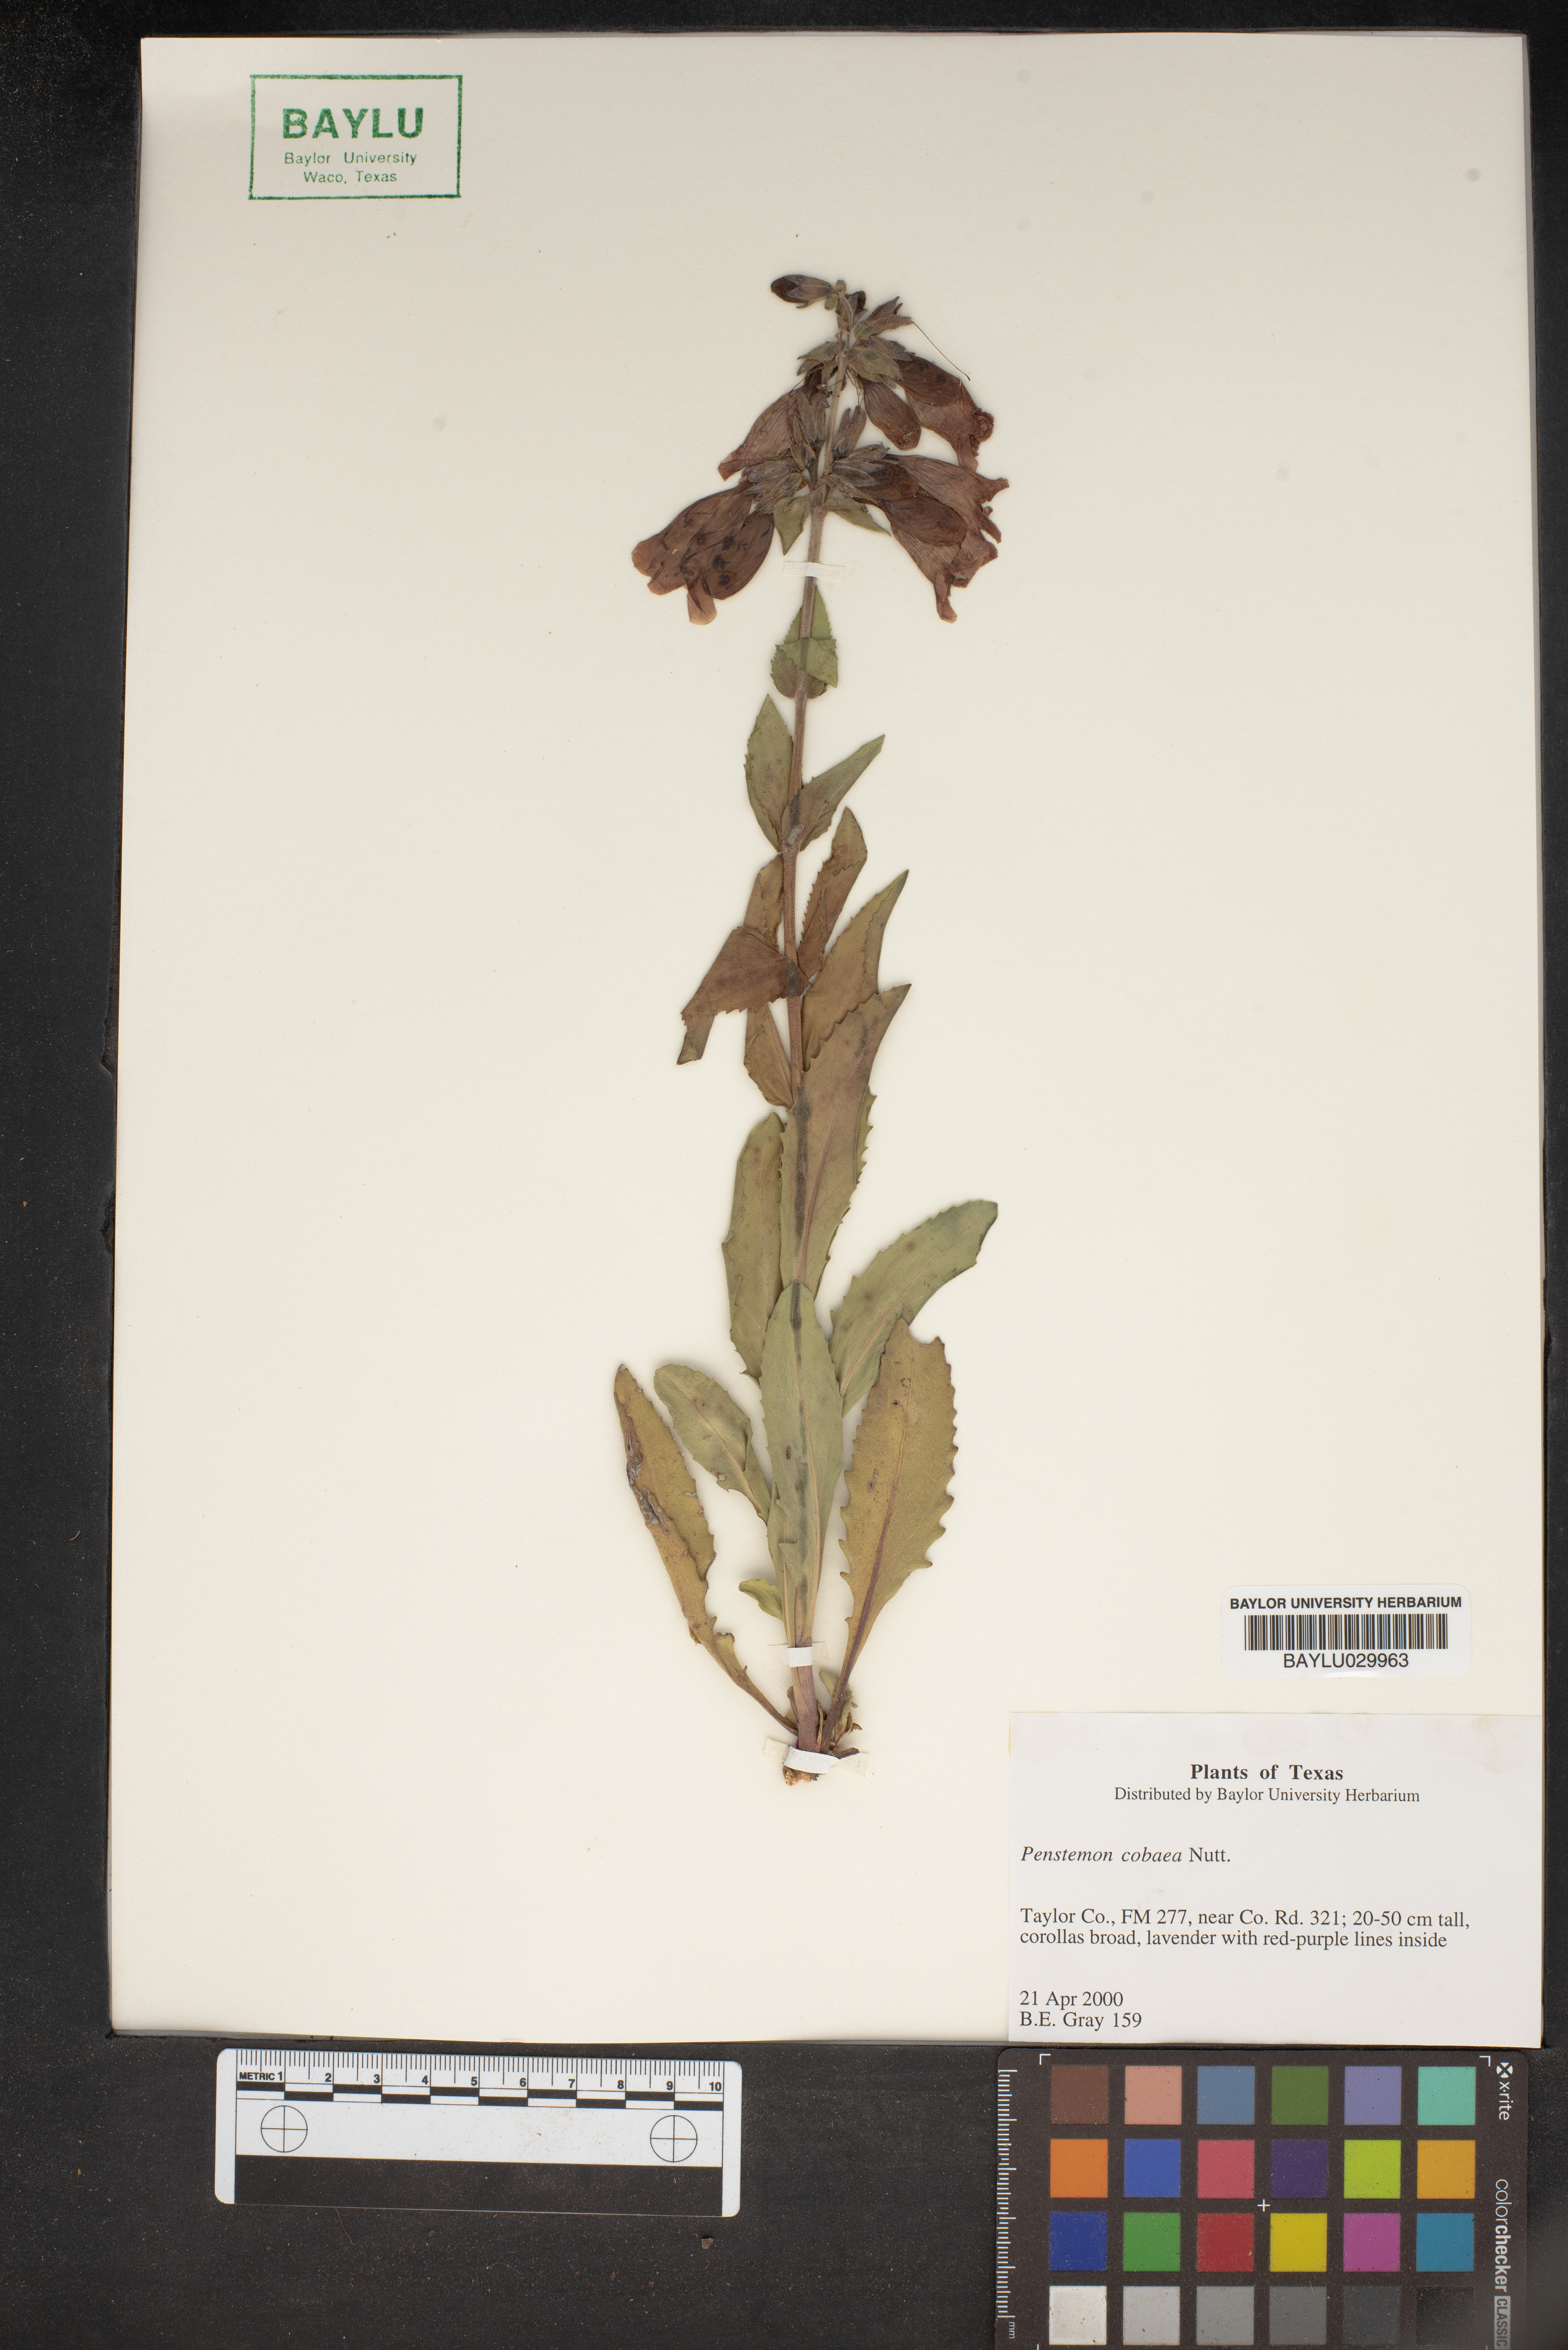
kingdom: Plantae
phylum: Tracheophyta
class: Magnoliopsida
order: Lamiales
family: Plantaginaceae
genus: Penstemon
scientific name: Penstemon cobaea
